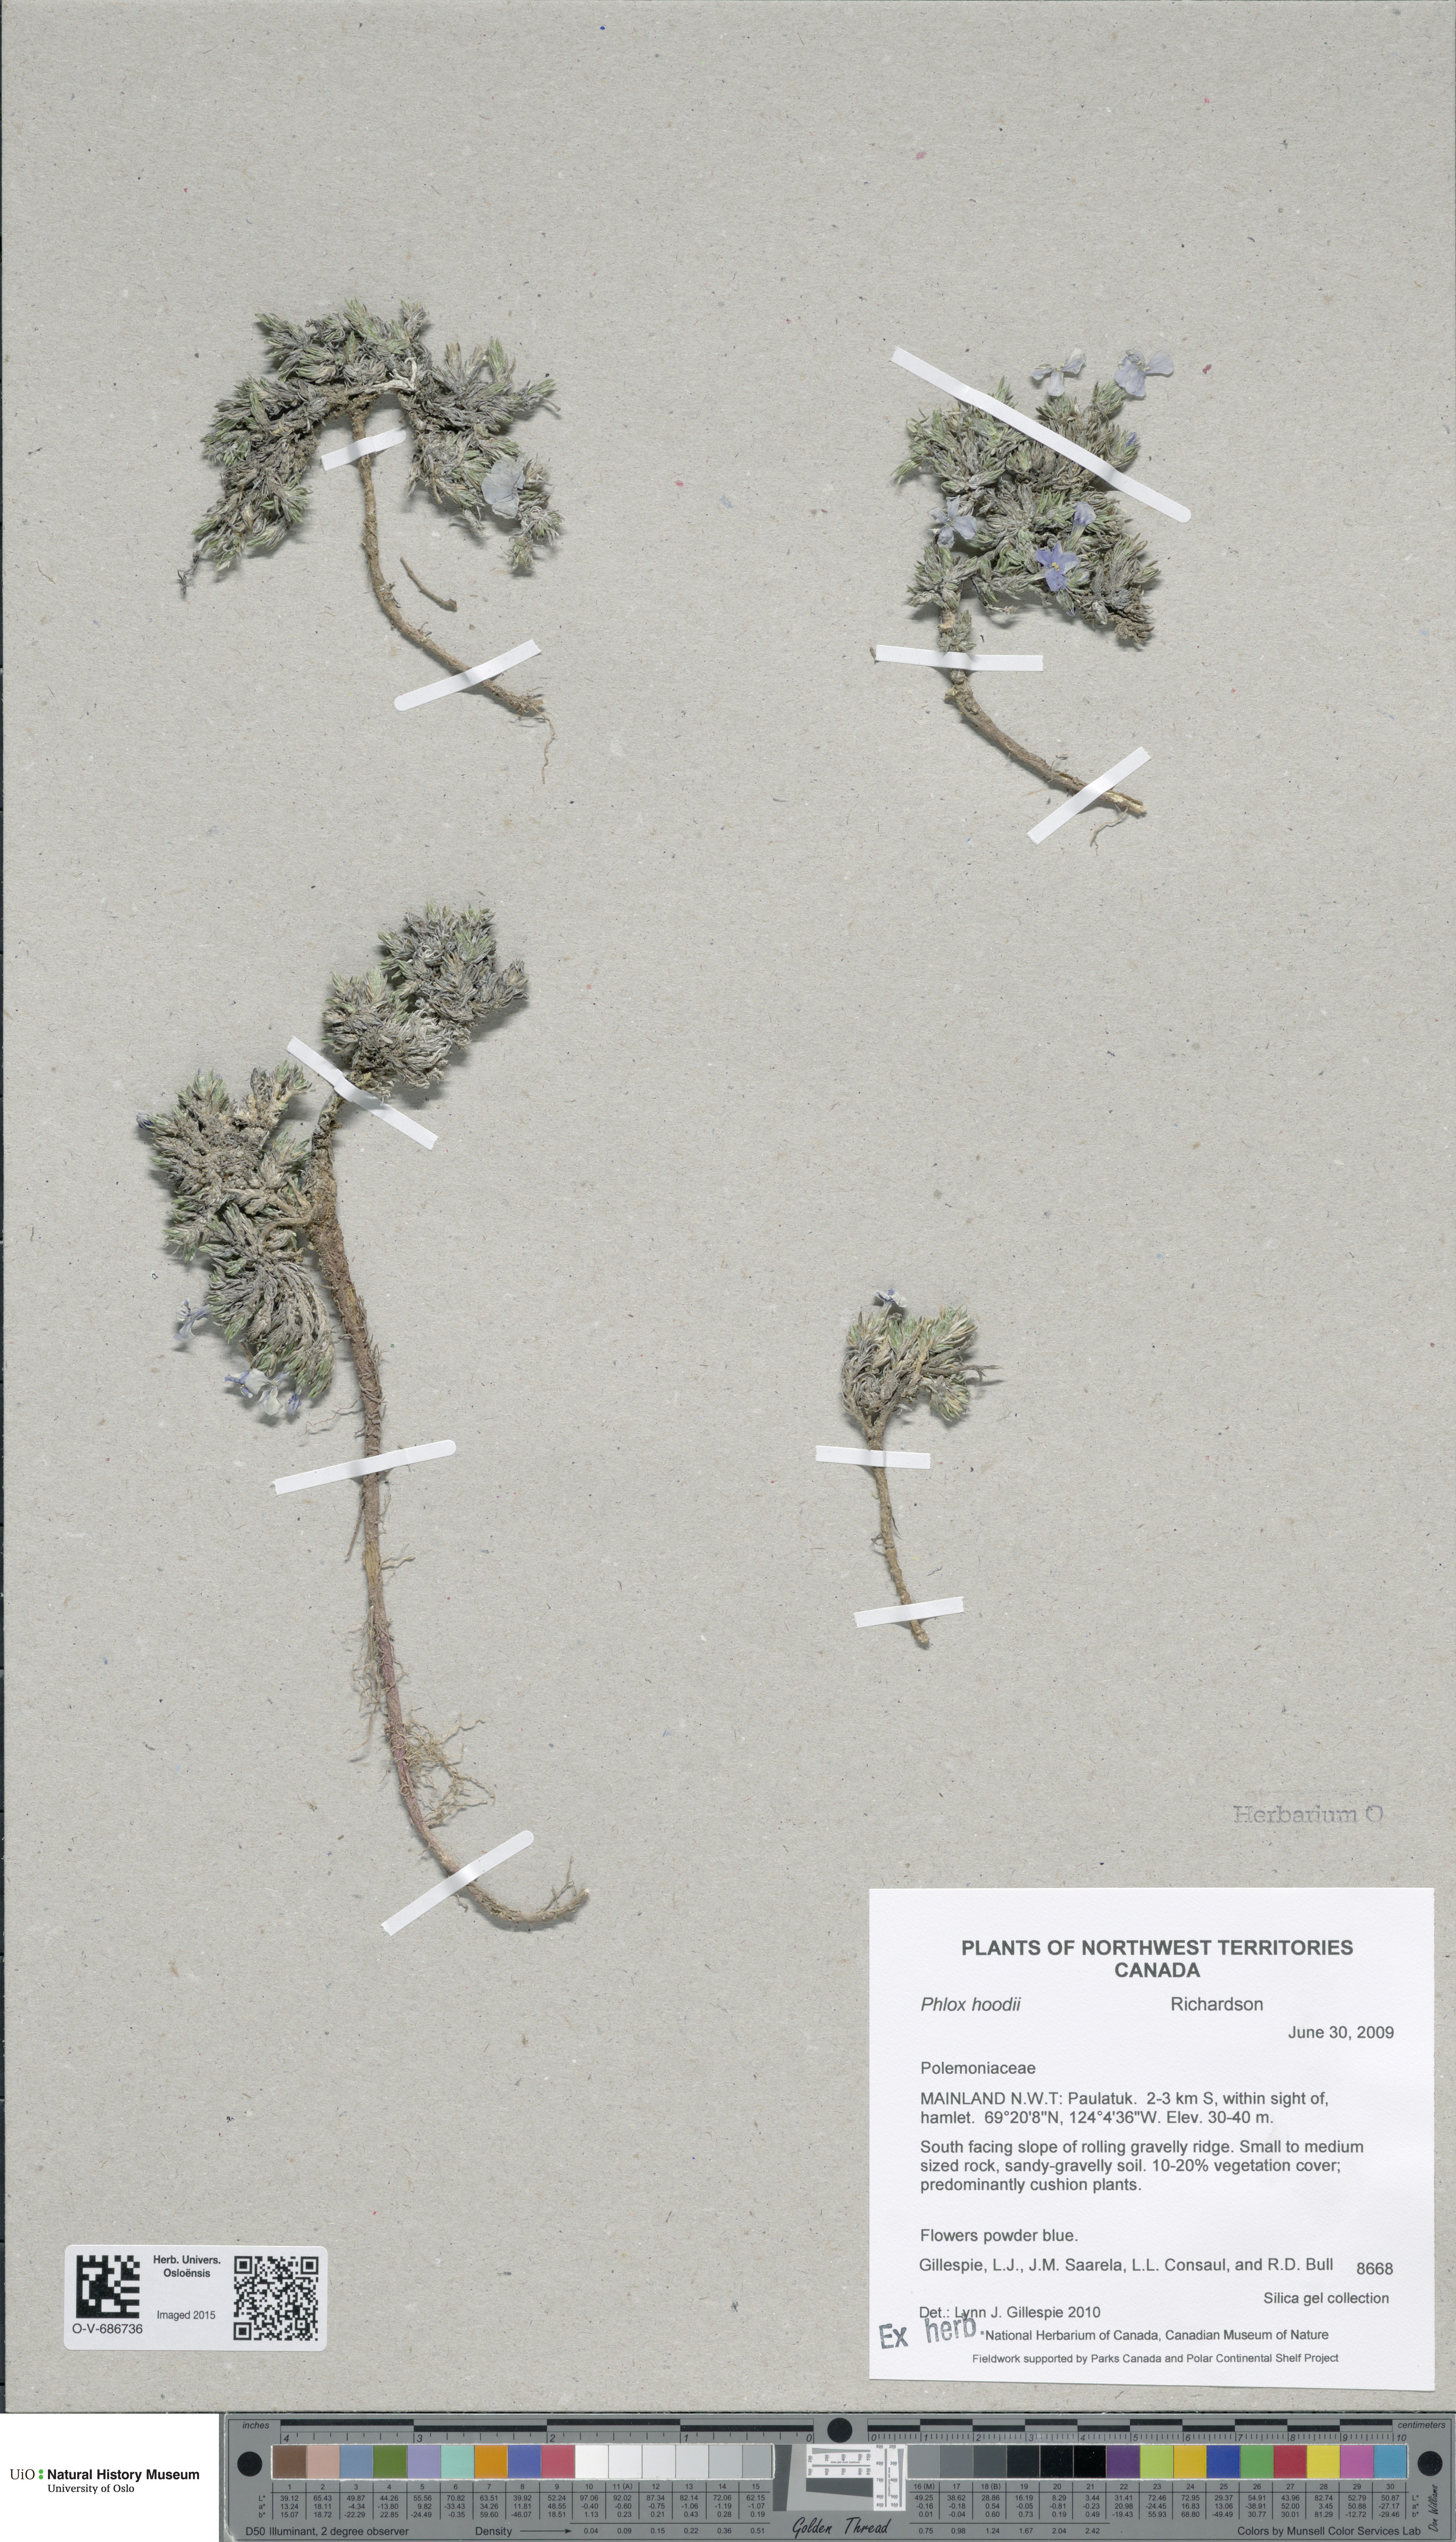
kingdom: Plantae
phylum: Tracheophyta
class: Magnoliopsida
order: Ericales
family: Polemoniaceae
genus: Phlox
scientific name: Phlox hoodii
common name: Moss phlox
